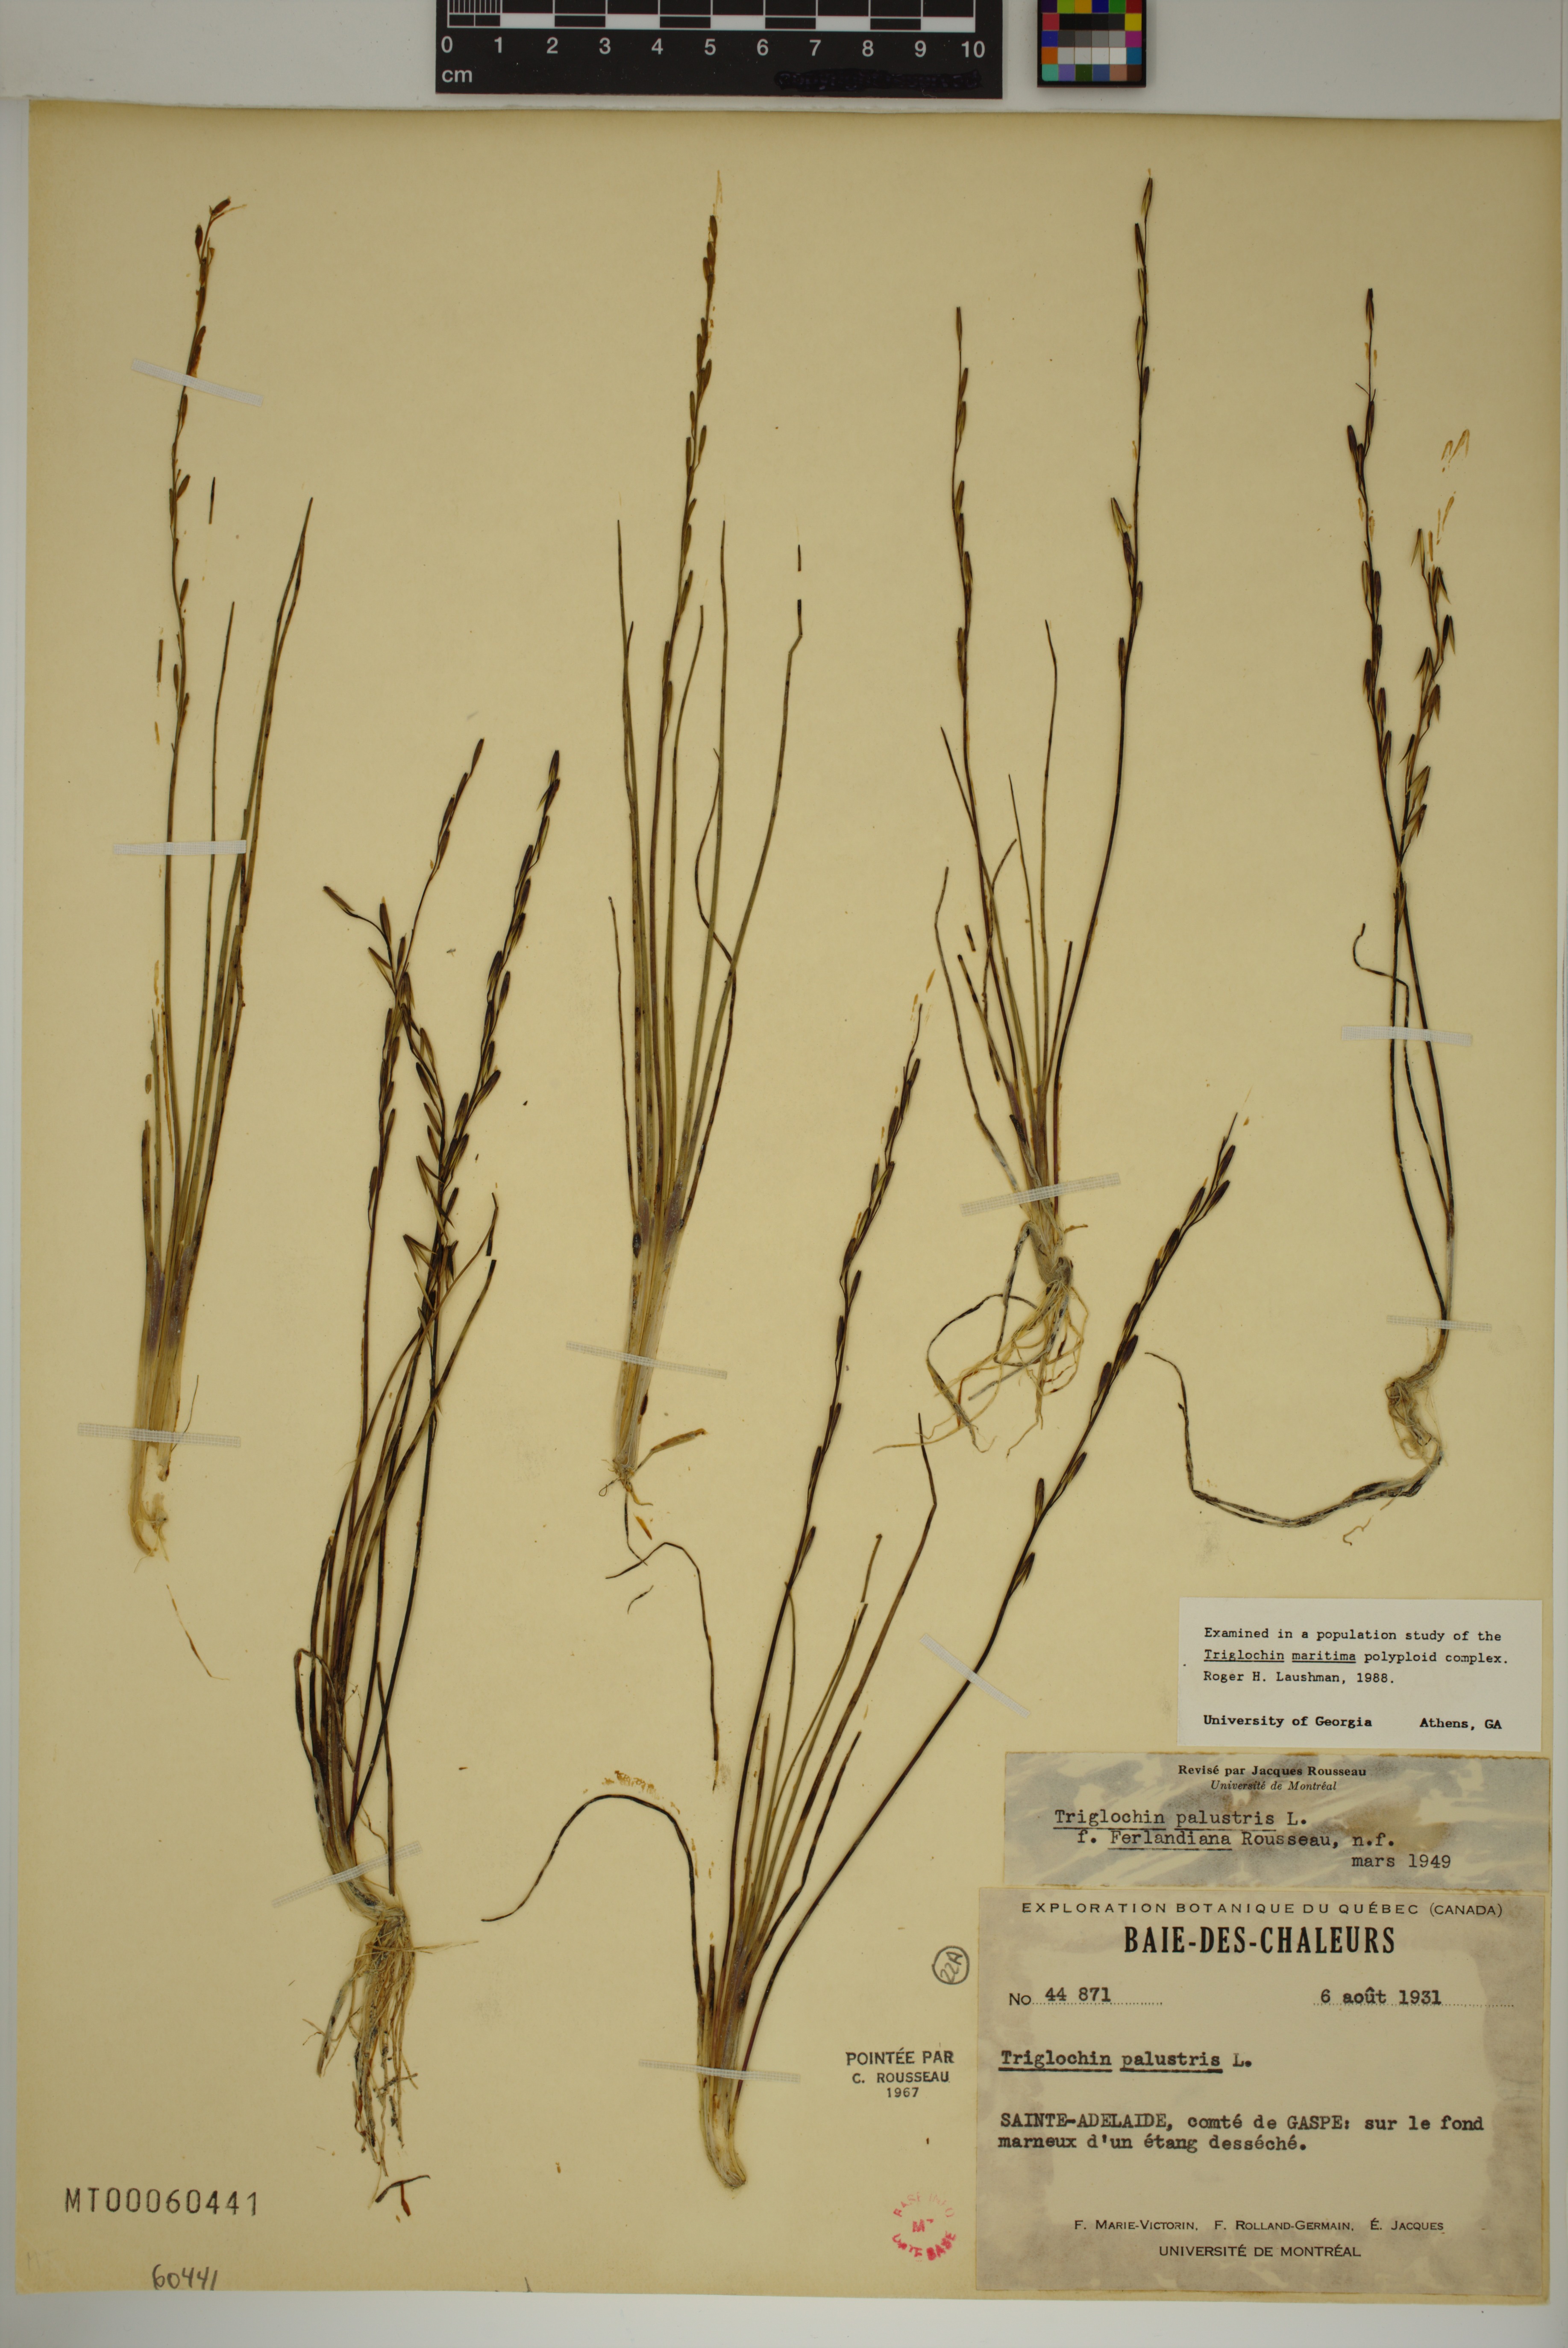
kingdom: Plantae
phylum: Tracheophyta
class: Liliopsida
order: Alismatales
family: Juncaginaceae
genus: Triglochin
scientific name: Triglochin palustris
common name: Marsh arrowgrass
